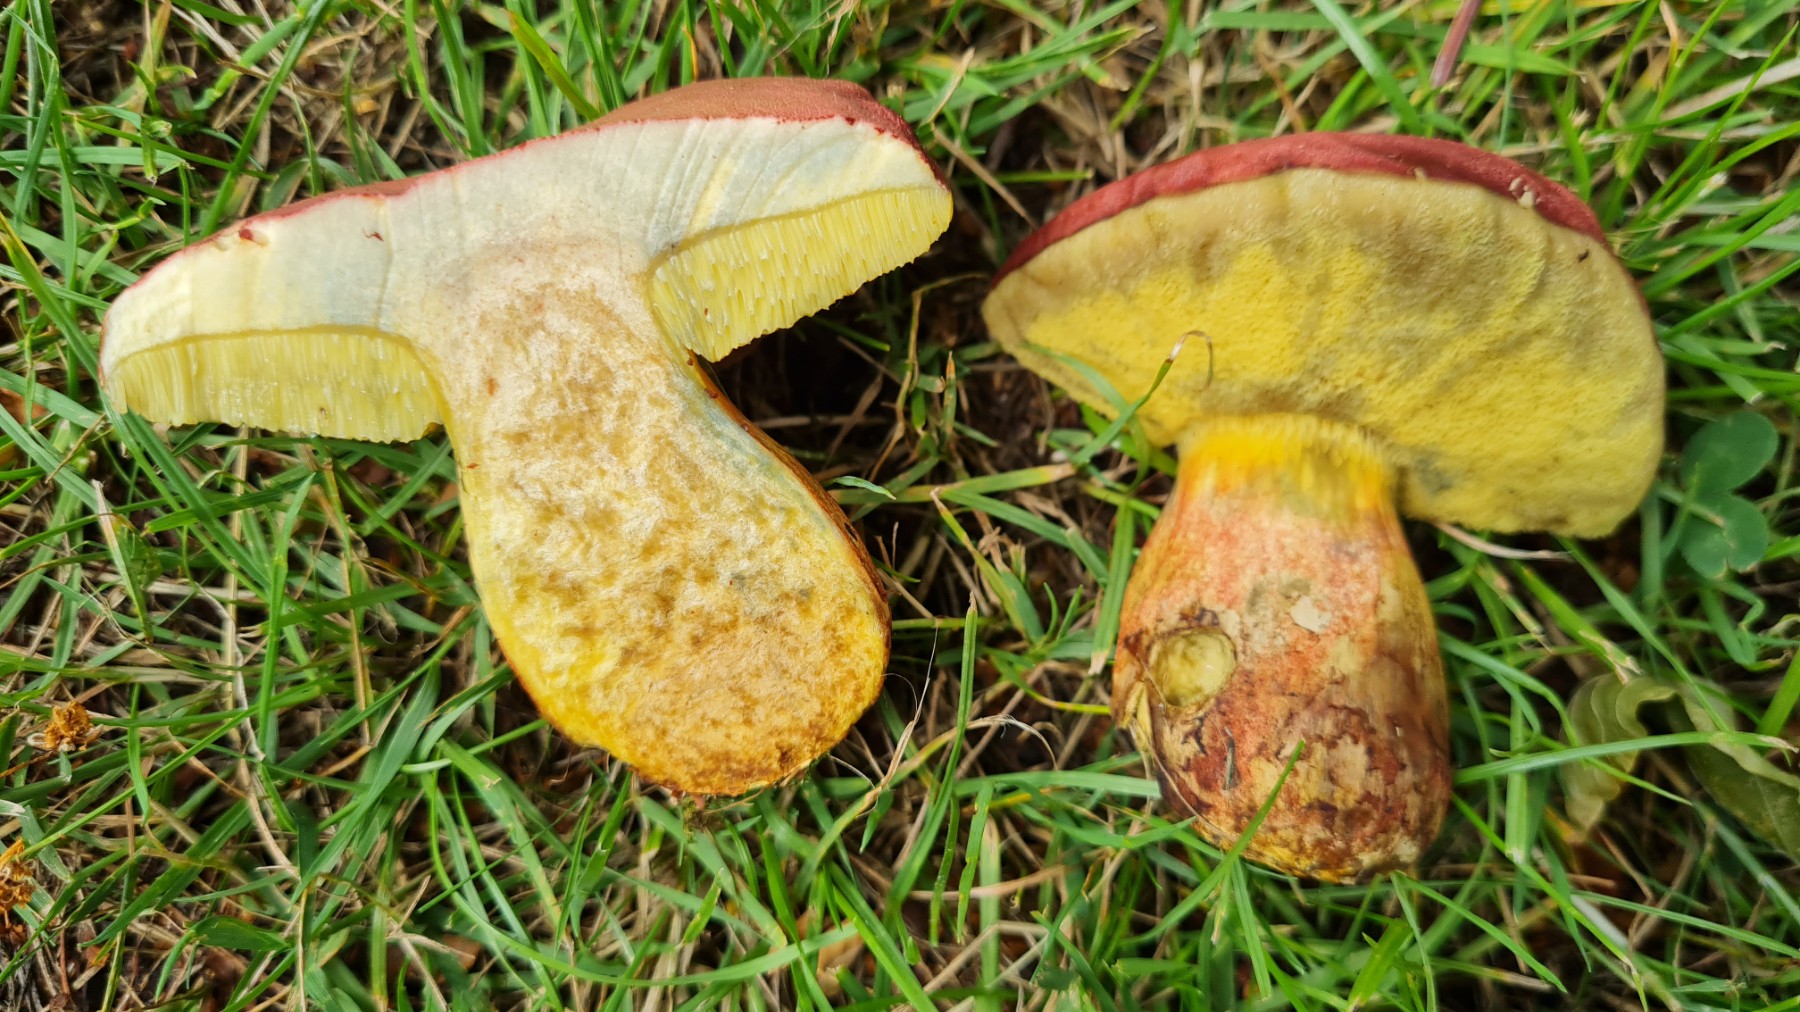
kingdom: Fungi
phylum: Basidiomycota
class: Agaricomycetes
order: Boletales
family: Boletaceae
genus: Hortiboletus
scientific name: Hortiboletus rubellus
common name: blodrød rørhat
